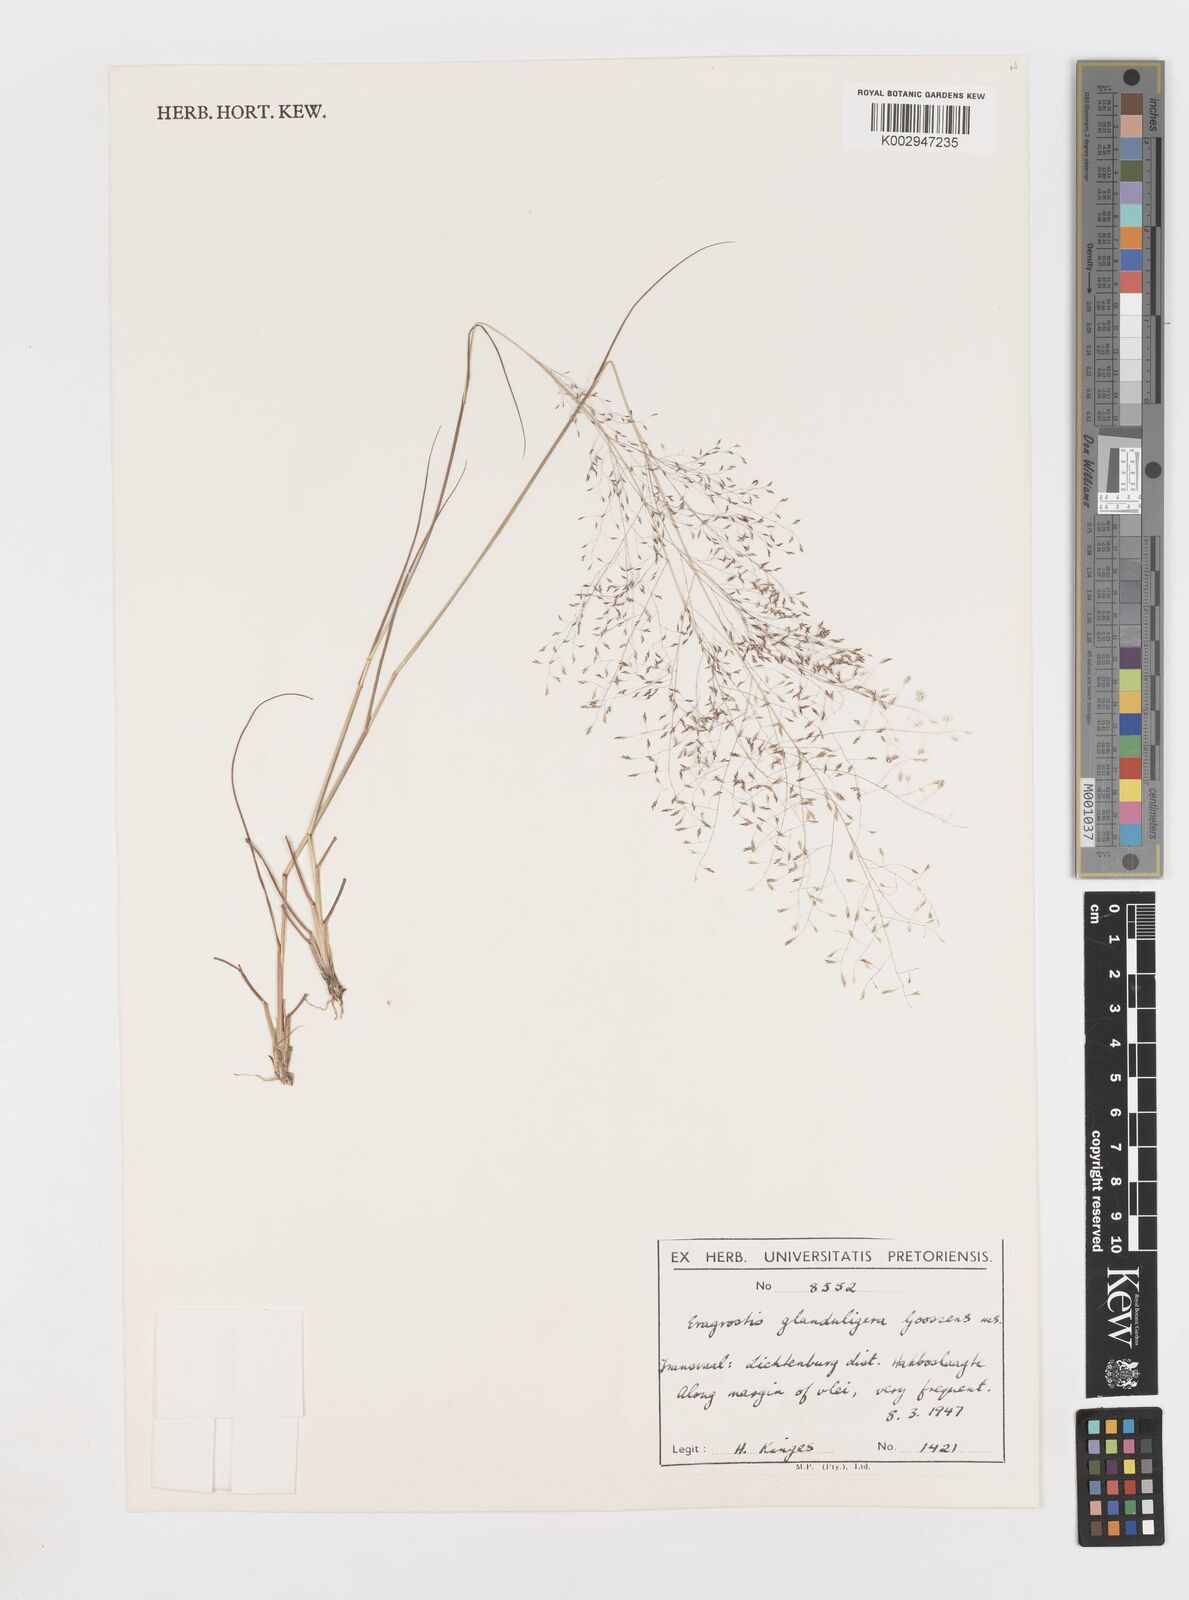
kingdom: Plantae
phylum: Tracheophyta
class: Liliopsida
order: Poales
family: Poaceae
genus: Eragrostis
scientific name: Eragrostis
